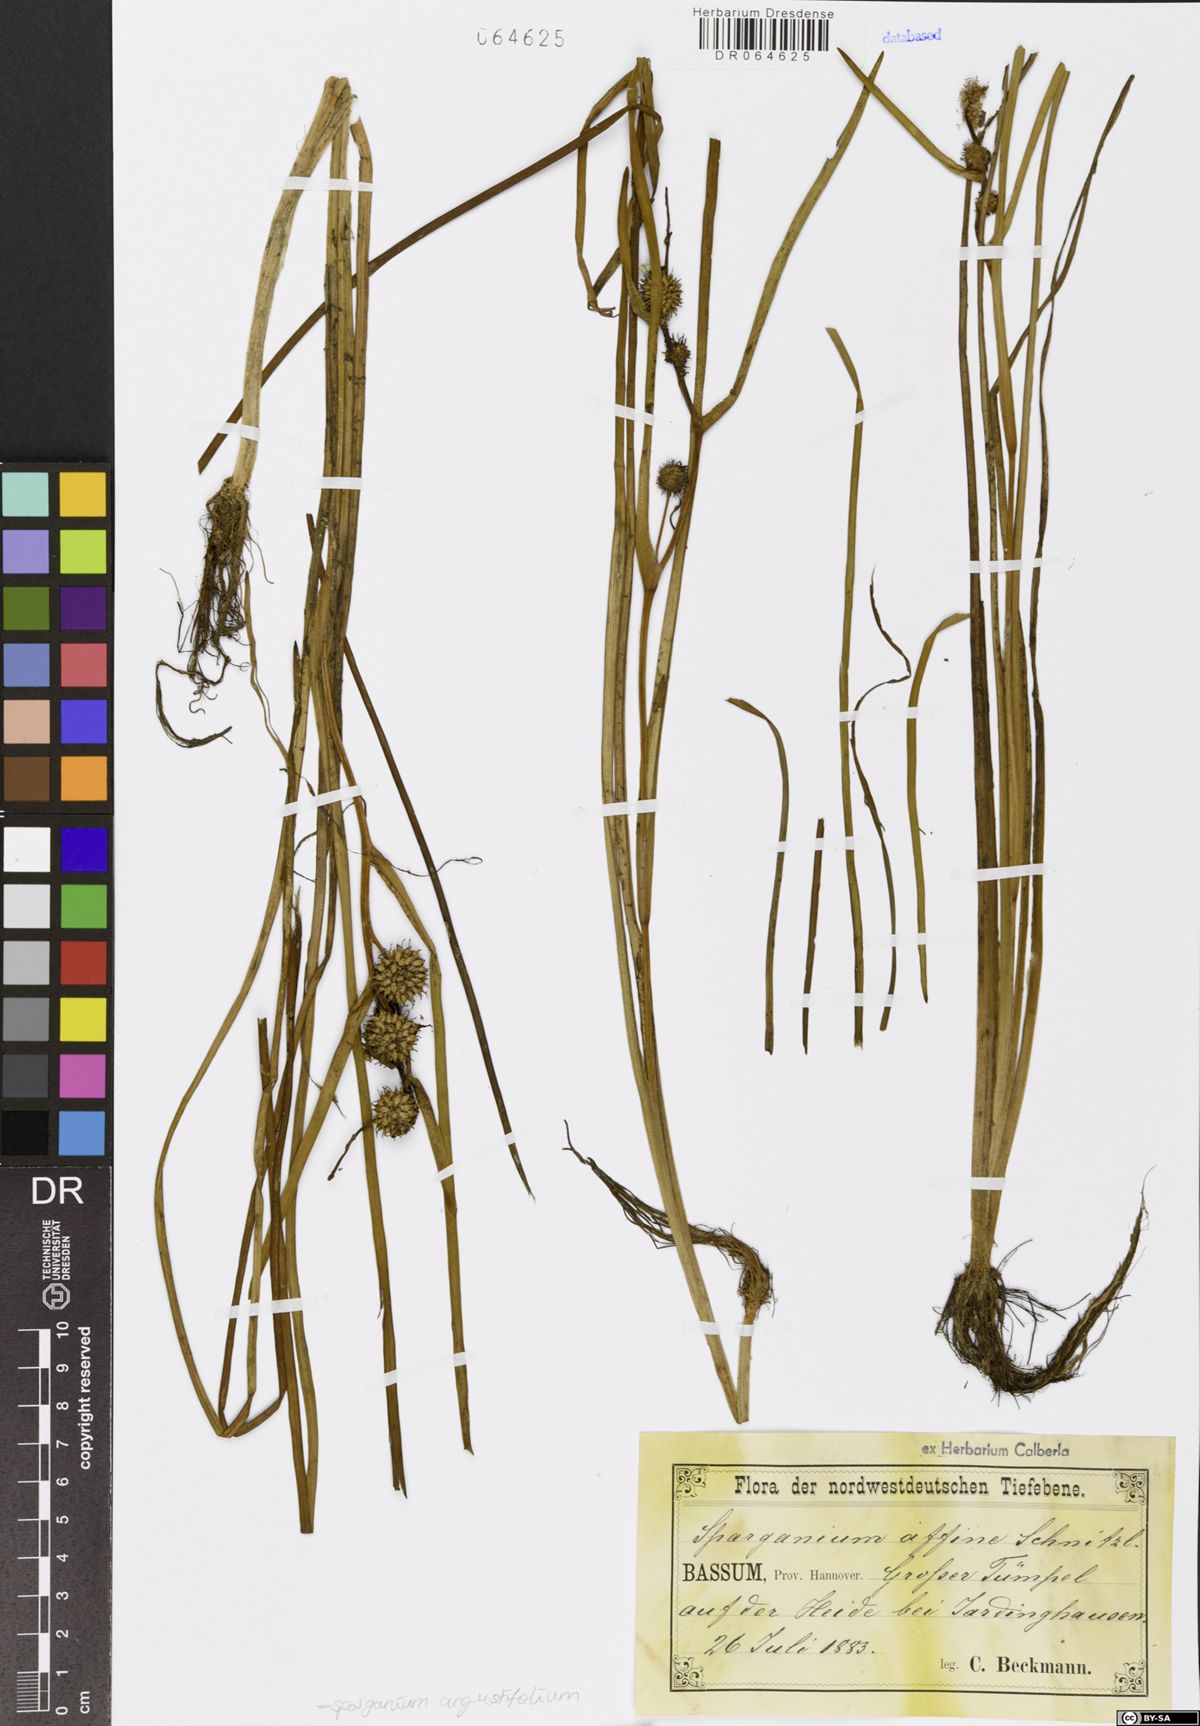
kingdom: Plantae
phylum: Tracheophyta
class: Liliopsida
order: Poales
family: Typhaceae
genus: Sparganium
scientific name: Sparganium angustifolium
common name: Floating bur-reed
